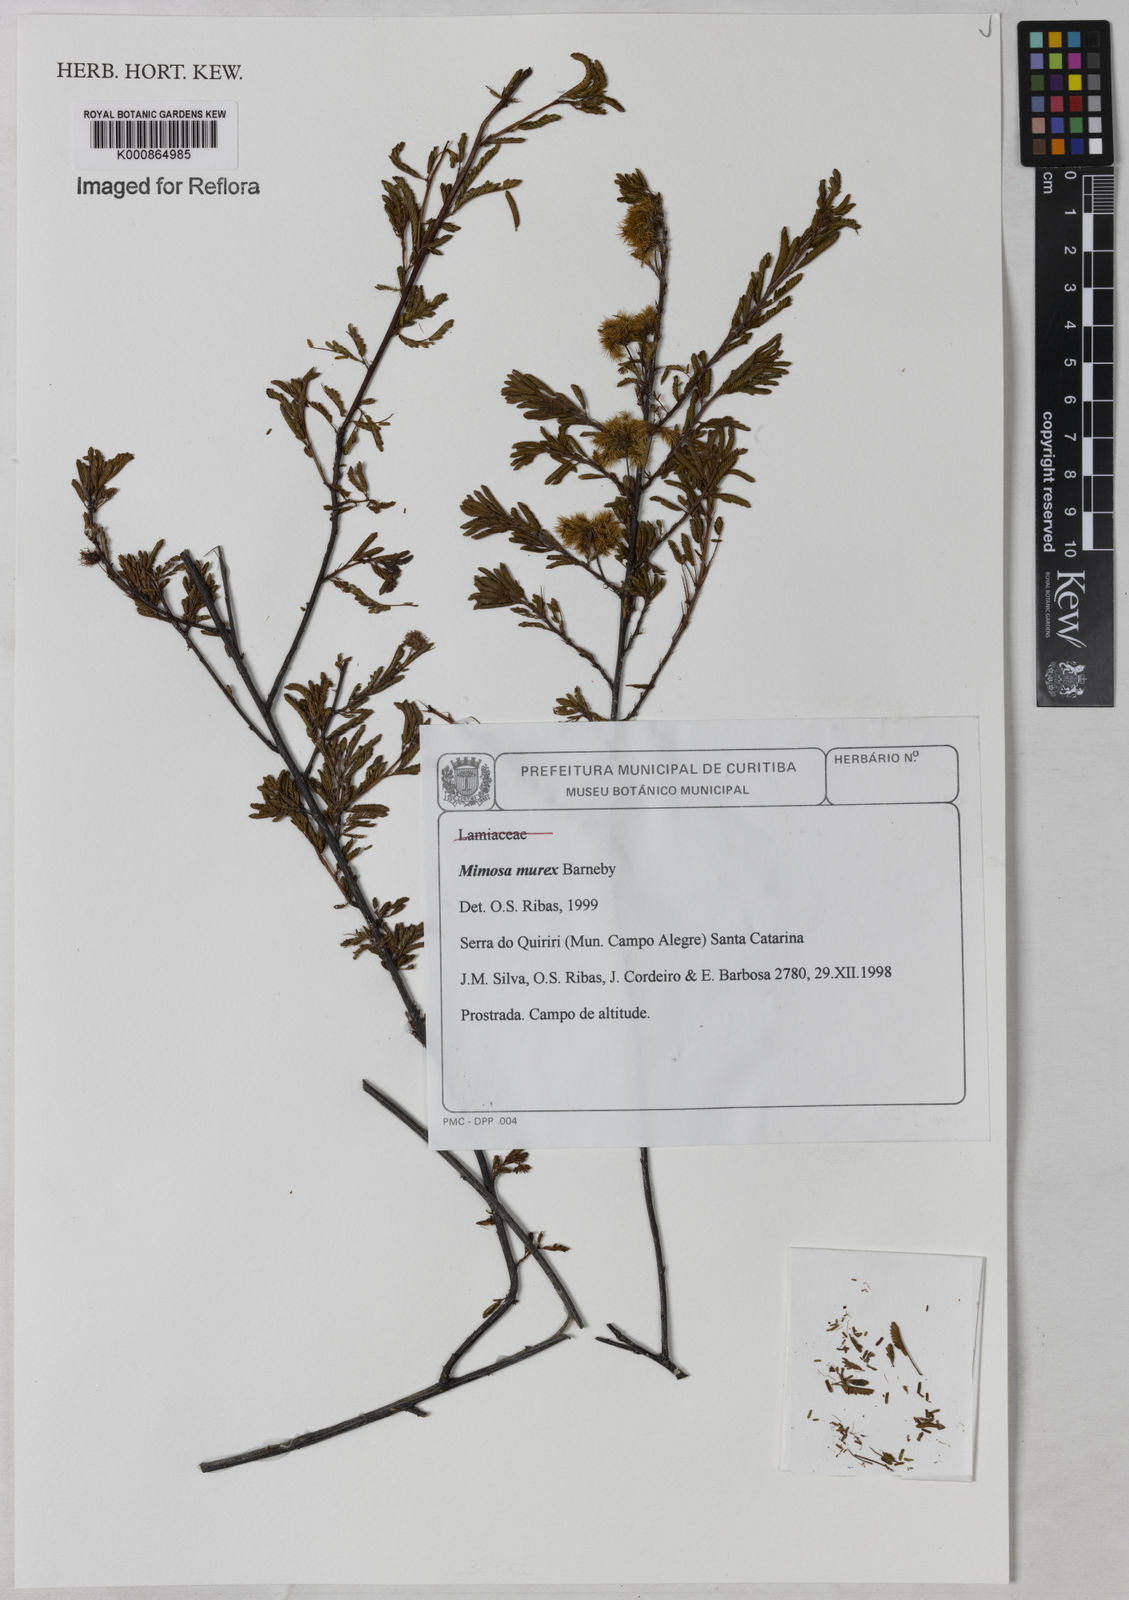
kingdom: Plantae
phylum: Tracheophyta
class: Magnoliopsida
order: Fabales
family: Fabaceae
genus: Mimosa
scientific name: Mimosa murex
